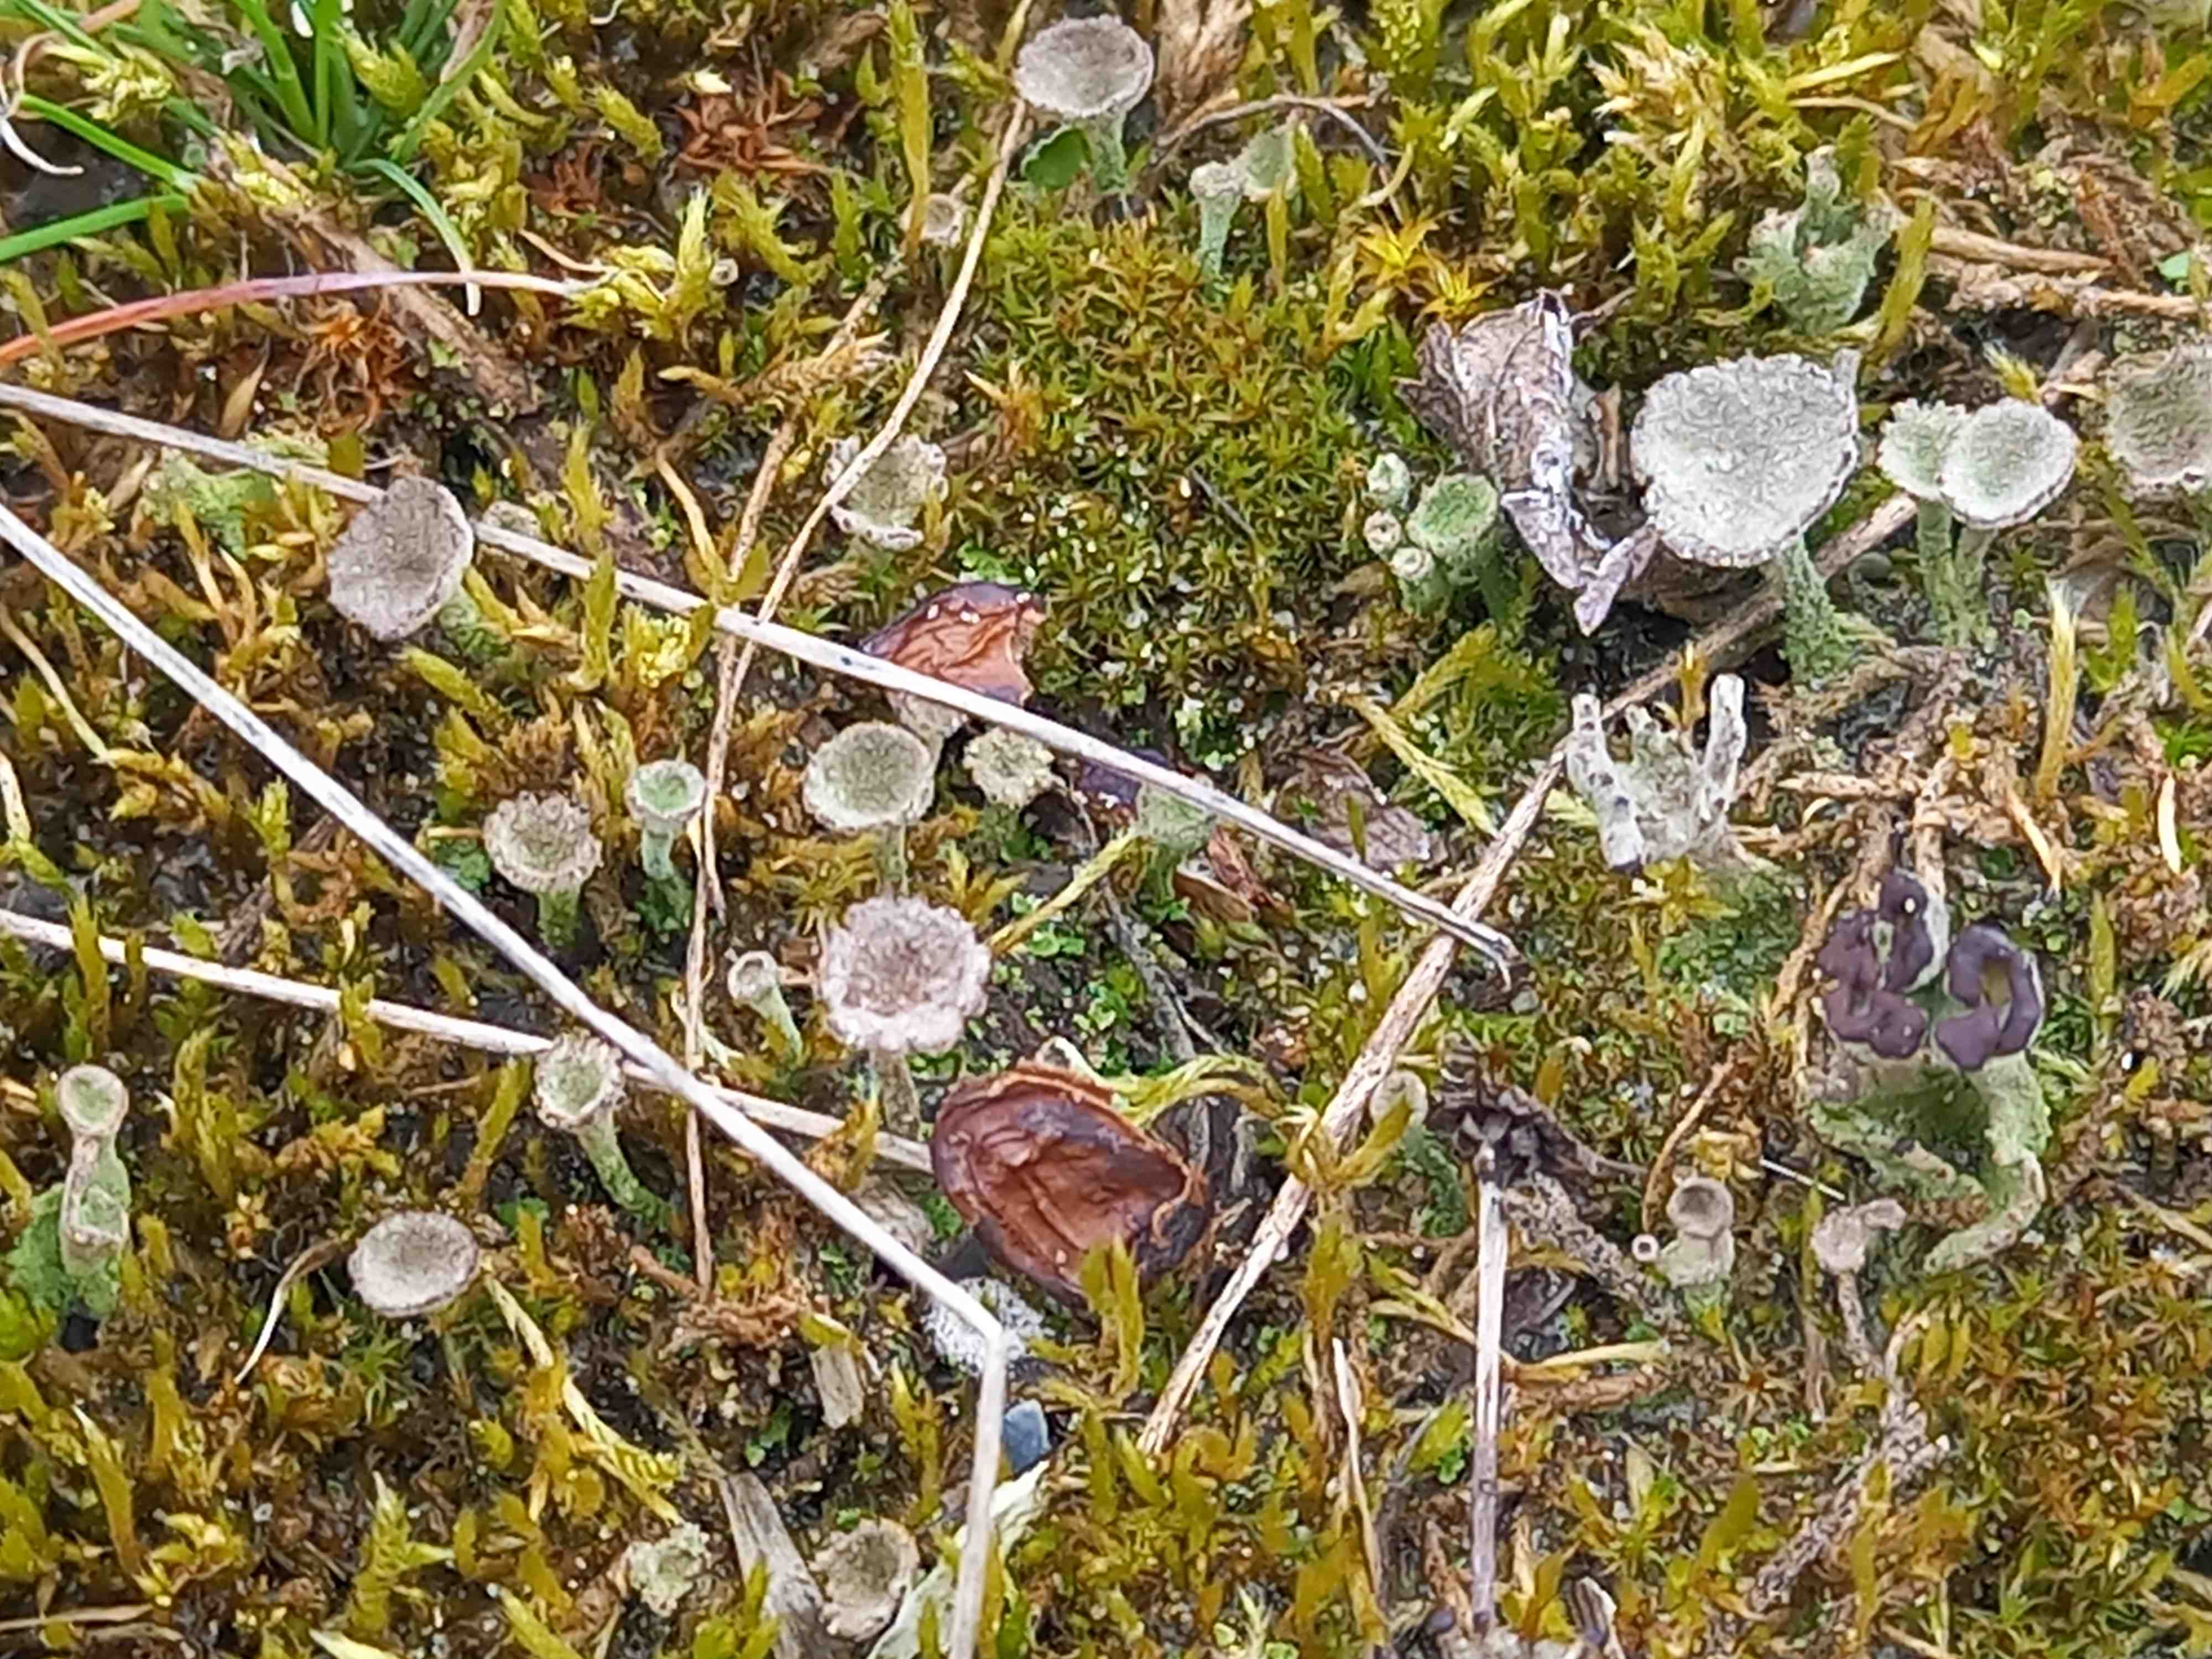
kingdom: Fungi
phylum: Ascomycota
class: Lecanoromycetes
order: Lecanorales
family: Cladoniaceae
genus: Cladonia
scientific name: Cladonia
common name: brungrøn bægerlav
